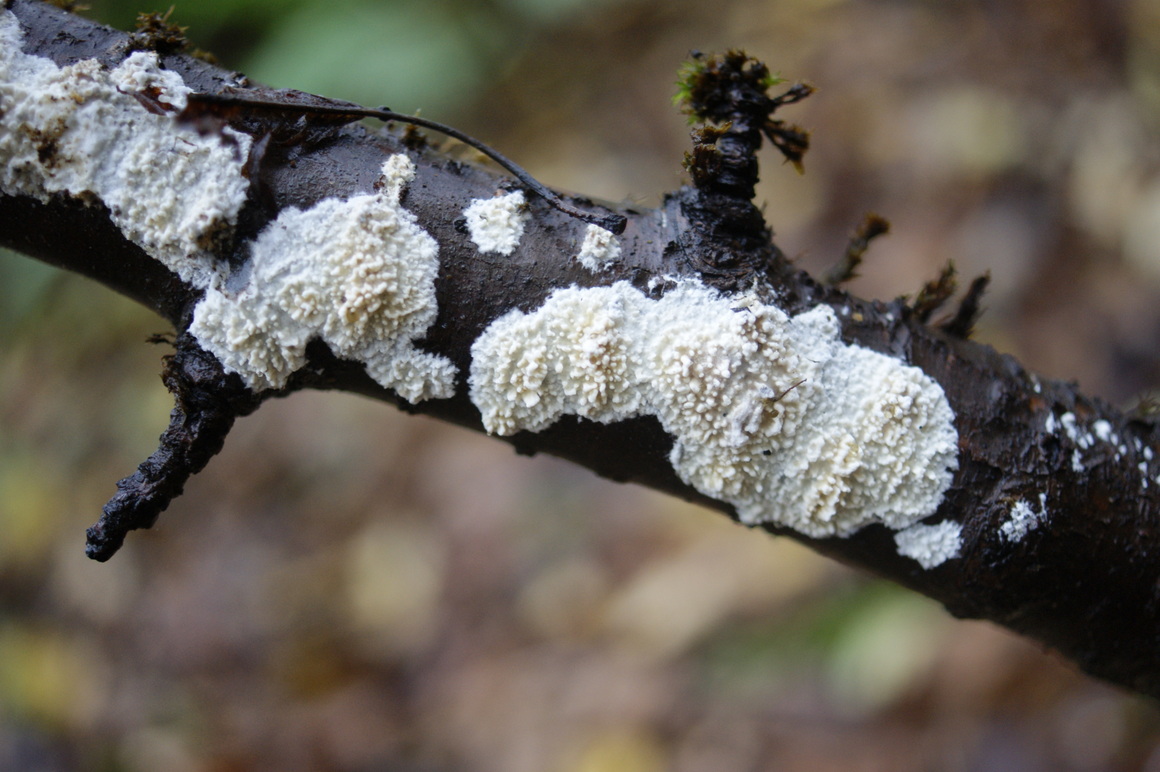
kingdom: Fungi
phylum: Basidiomycota
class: Agaricomycetes
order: Hymenochaetales
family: Schizoporaceae
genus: Xylodon
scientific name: Xylodon radula
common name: grovtandet kalkskind
